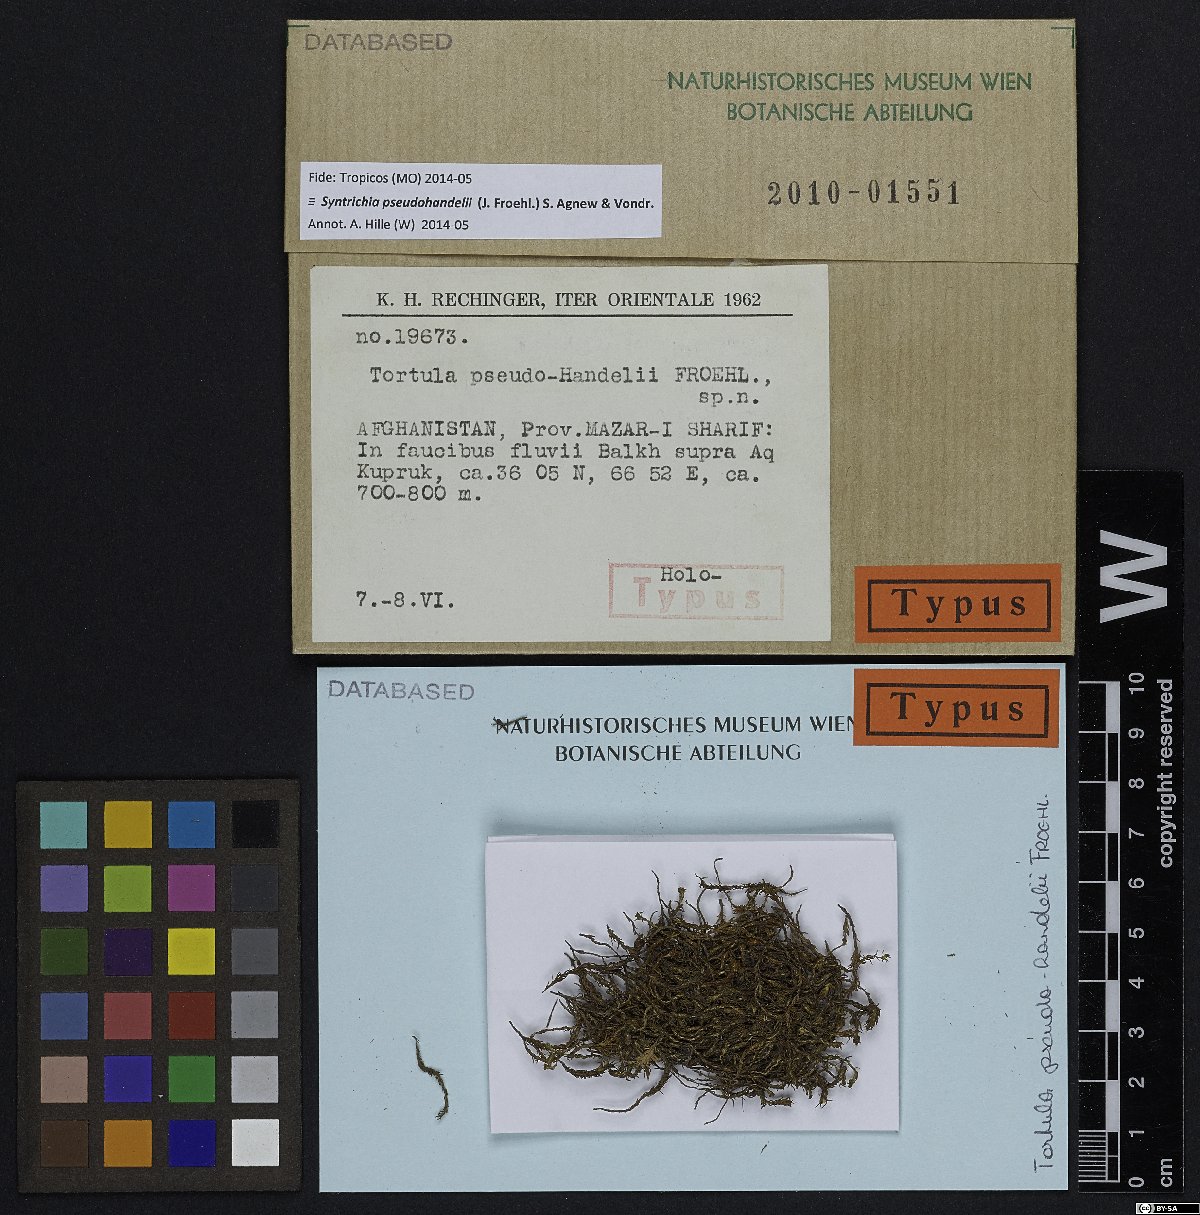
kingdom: Plantae
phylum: Bryophyta
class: Bryopsida
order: Pottiales
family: Pottiaceae
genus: Syntrichia
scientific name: Syntrichia caninervis
